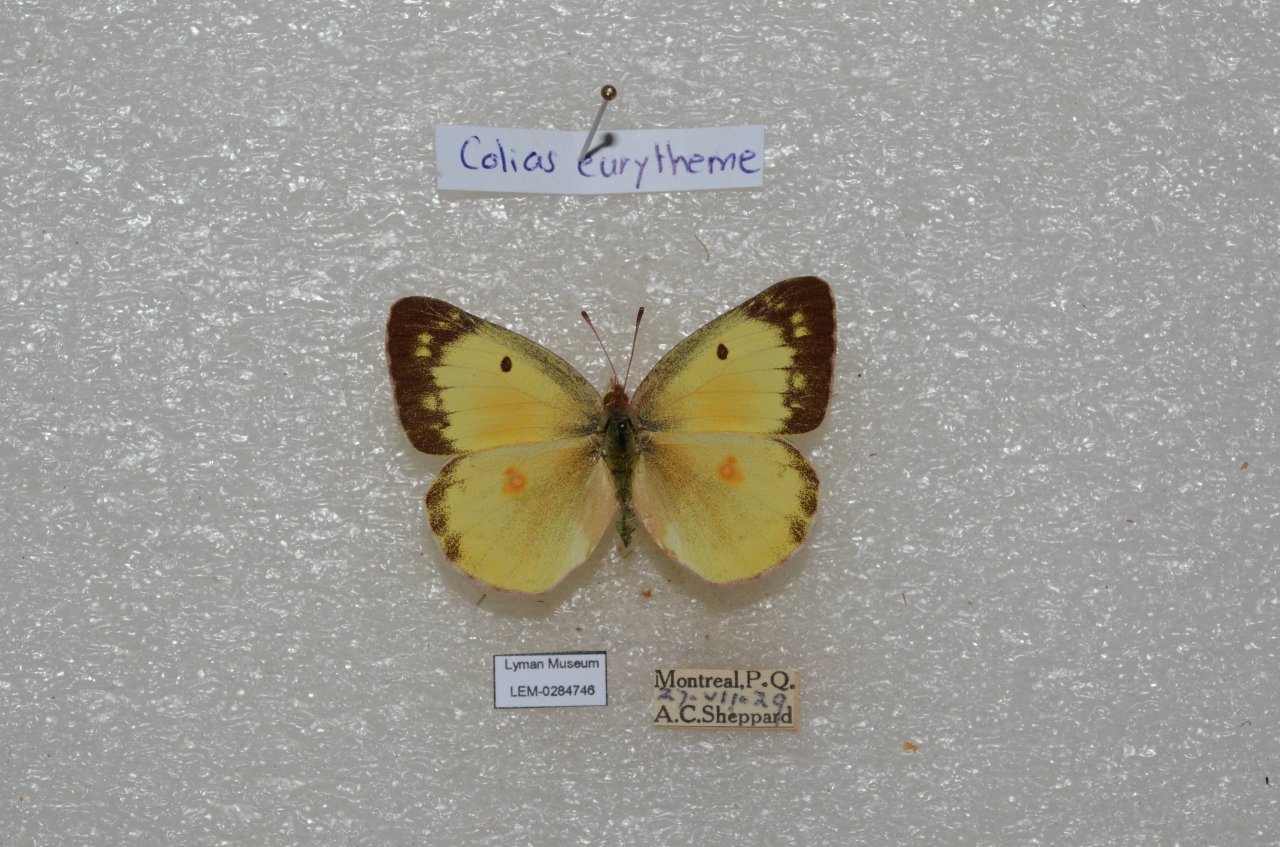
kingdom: Animalia
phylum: Arthropoda
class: Insecta
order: Lepidoptera
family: Pieridae
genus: Colias
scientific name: Colias eurytheme
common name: Orange Sulphur
